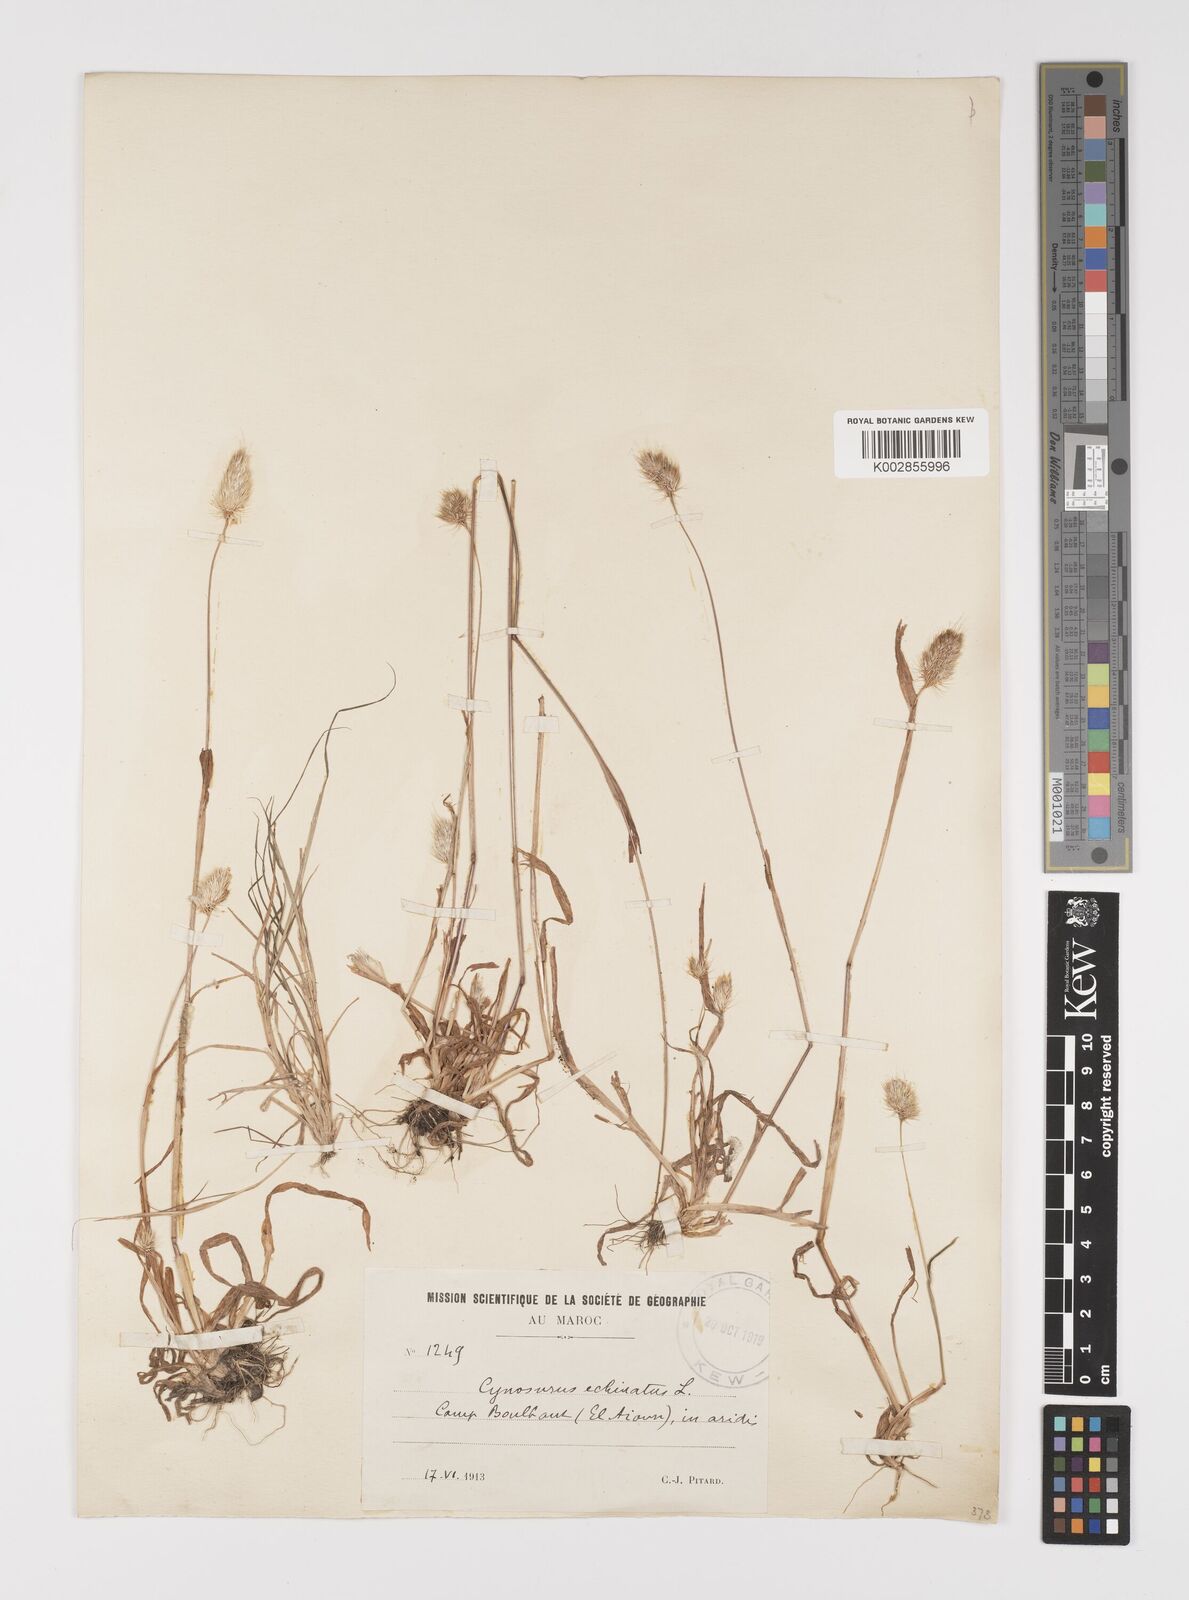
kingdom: Plantae
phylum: Tracheophyta
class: Liliopsida
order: Poales
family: Poaceae
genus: Cynosurus
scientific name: Cynosurus echinatus
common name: Rough dog's-tail
